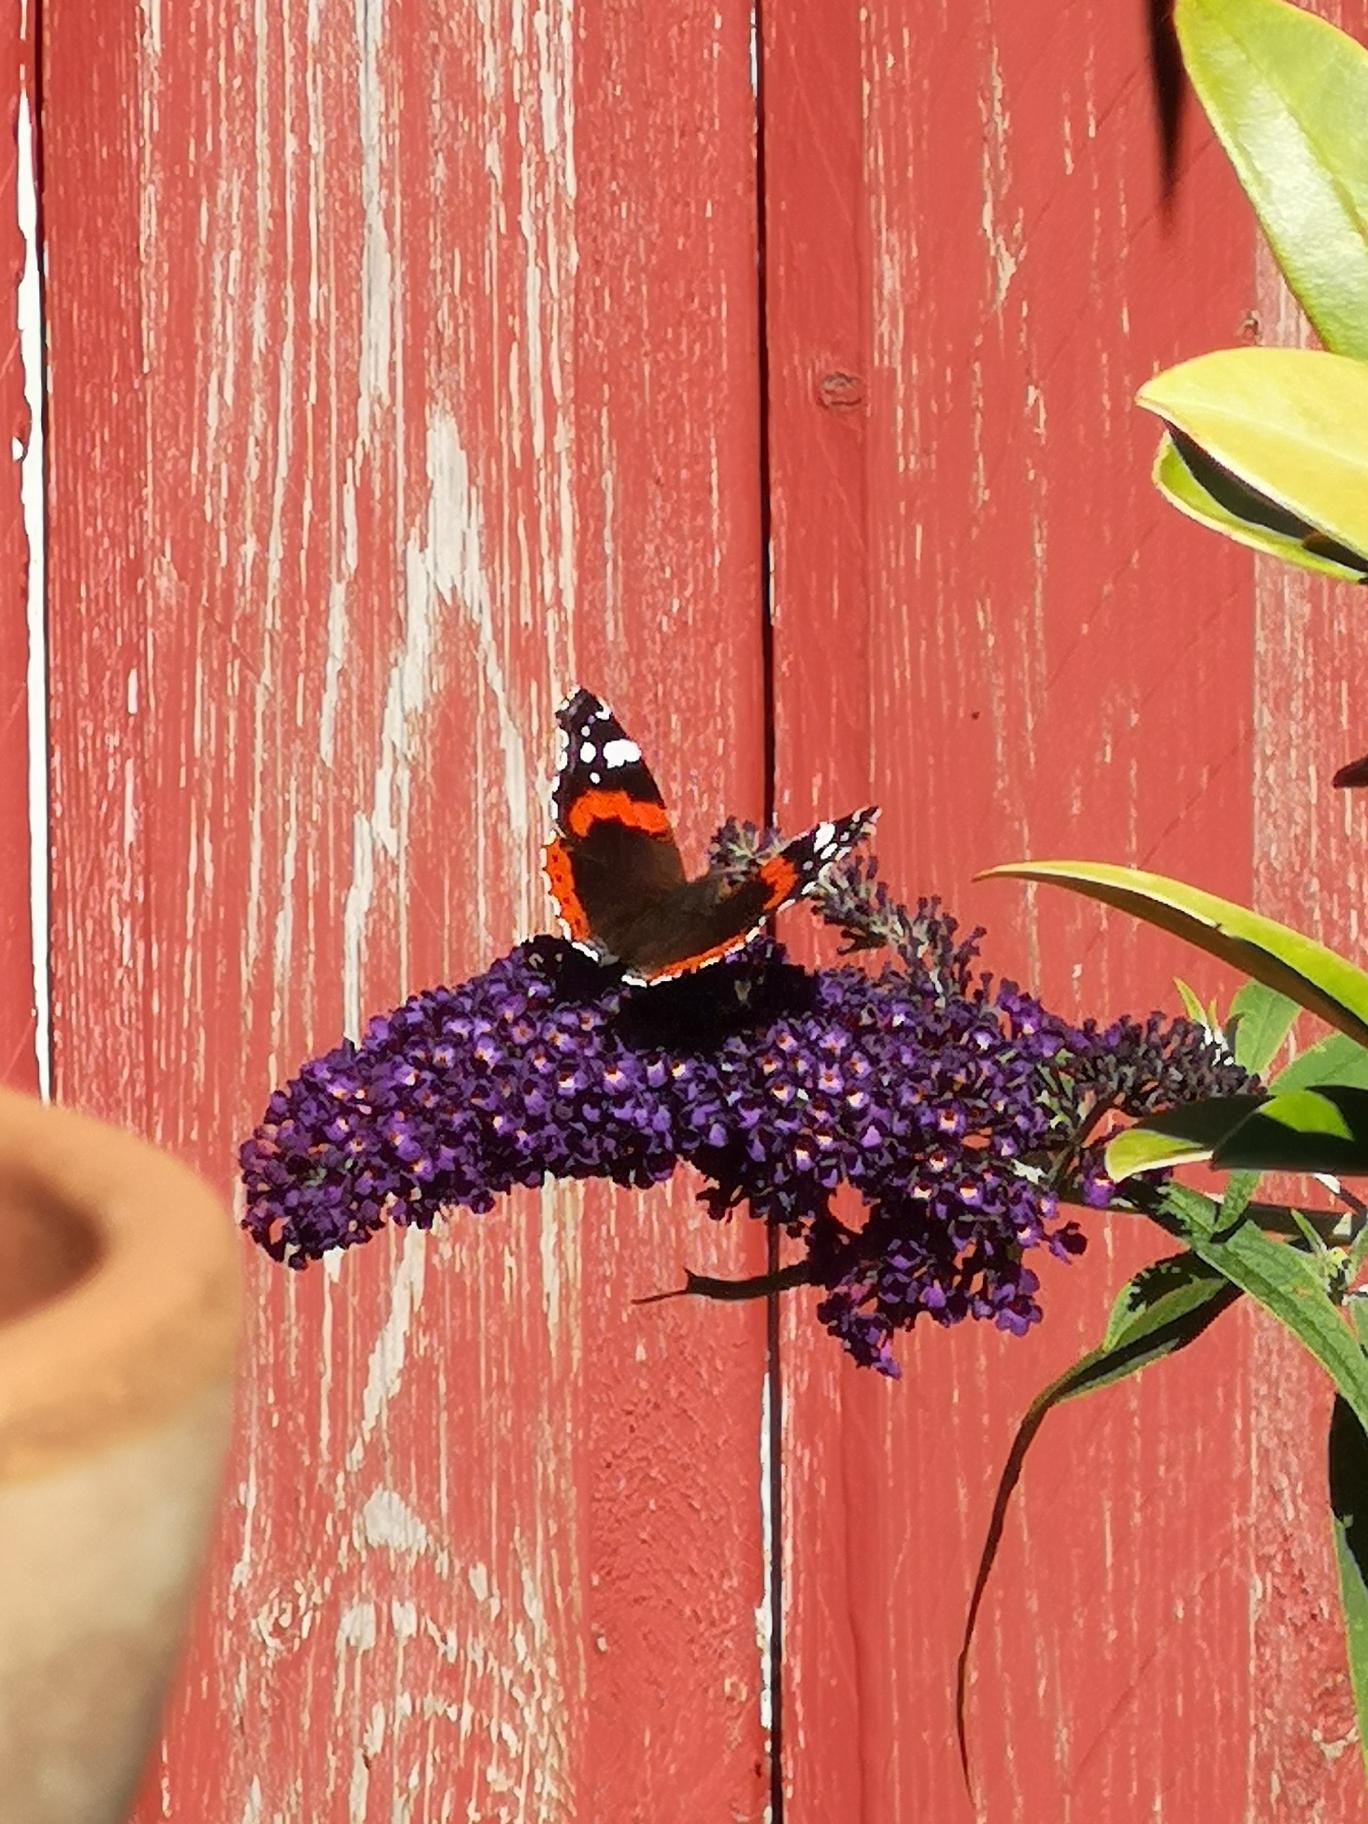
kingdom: Animalia
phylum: Arthropoda
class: Insecta
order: Lepidoptera
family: Nymphalidae
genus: Vanessa
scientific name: Vanessa atalanta
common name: Admiral
